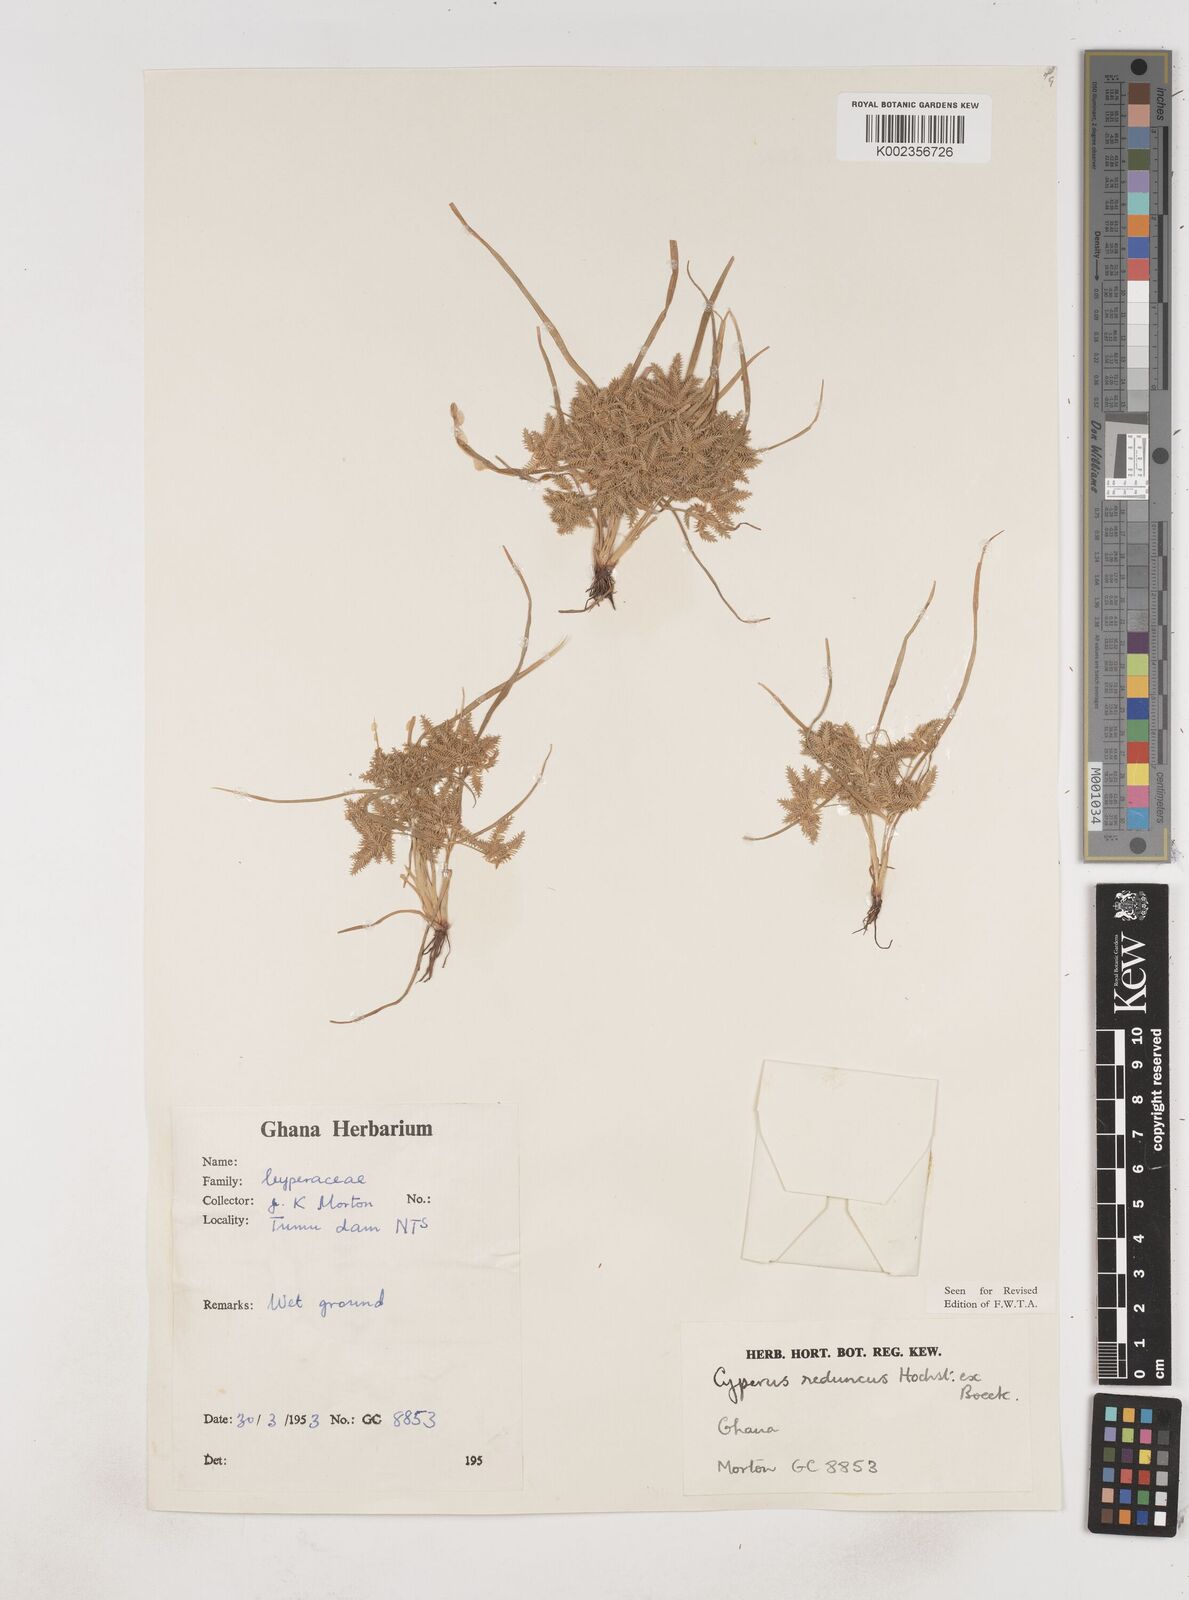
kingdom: Plantae
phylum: Tracheophyta
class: Liliopsida
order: Poales
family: Cyperaceae
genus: Cyperus
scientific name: Cyperus reduncus
